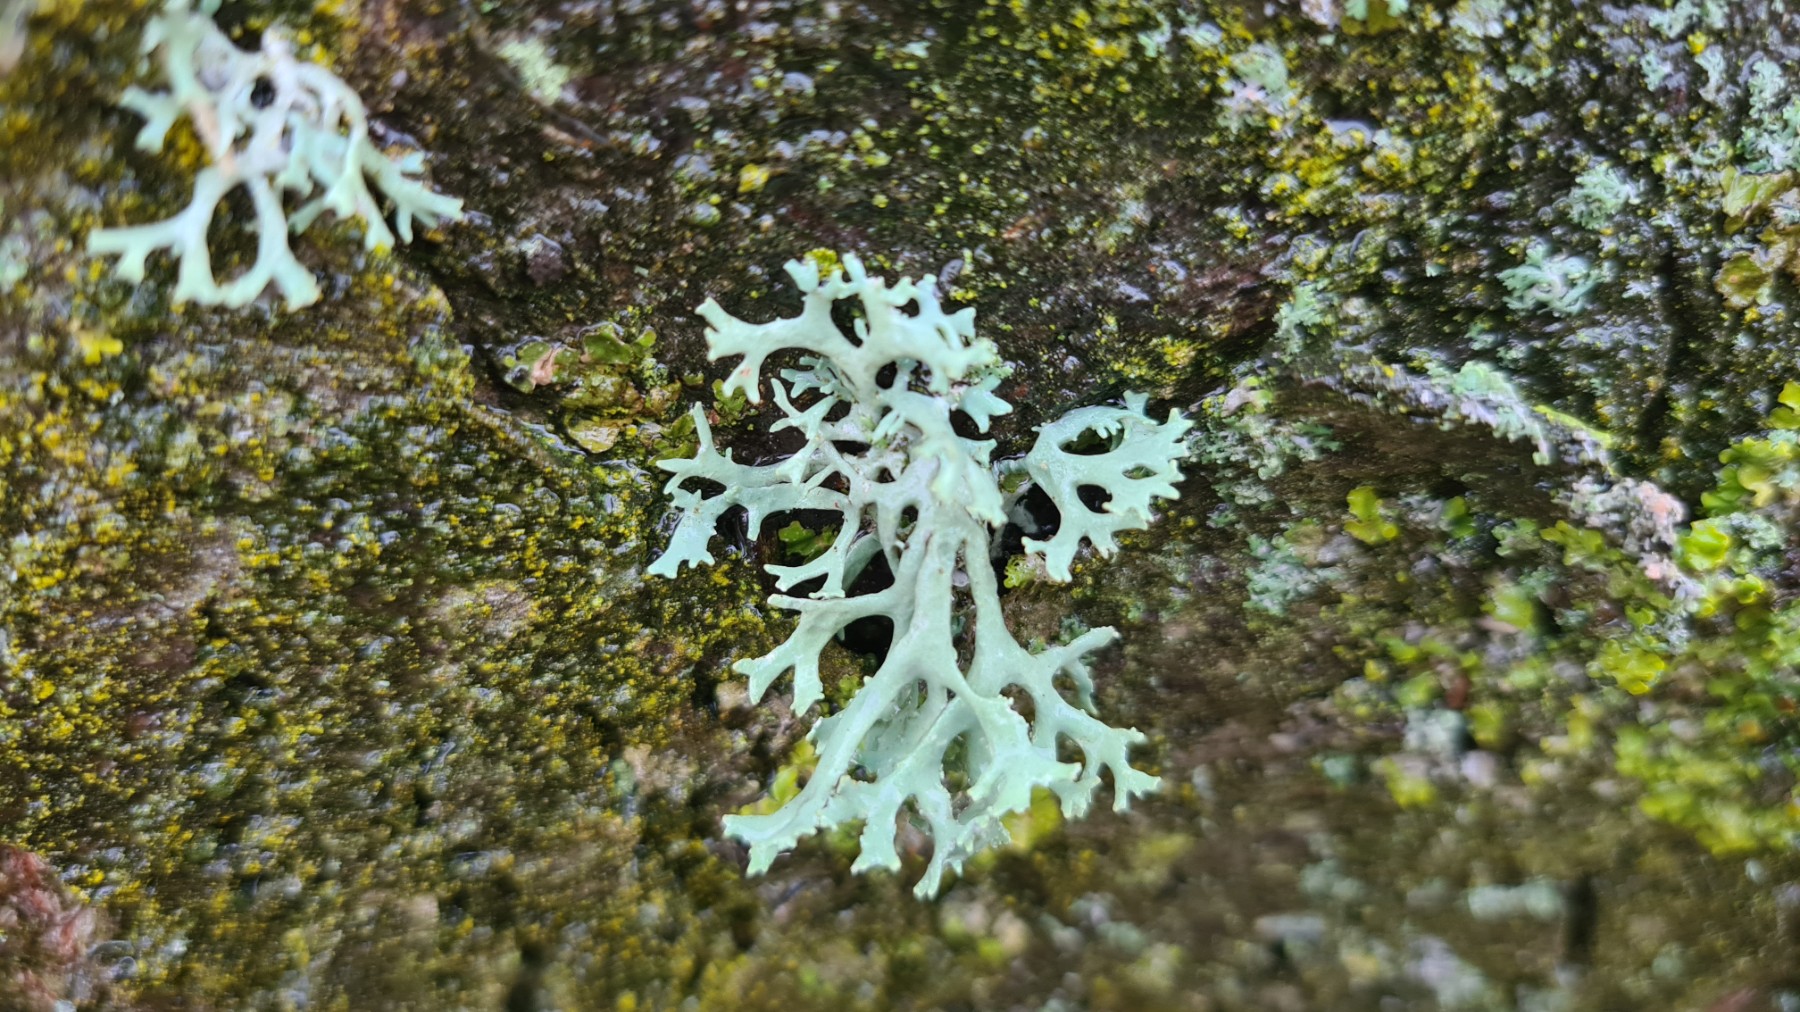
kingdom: Fungi
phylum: Ascomycota
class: Lecanoromycetes
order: Lecanorales
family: Parmeliaceae
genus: Evernia
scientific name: Evernia prunastri
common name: almindelig slåenlav
